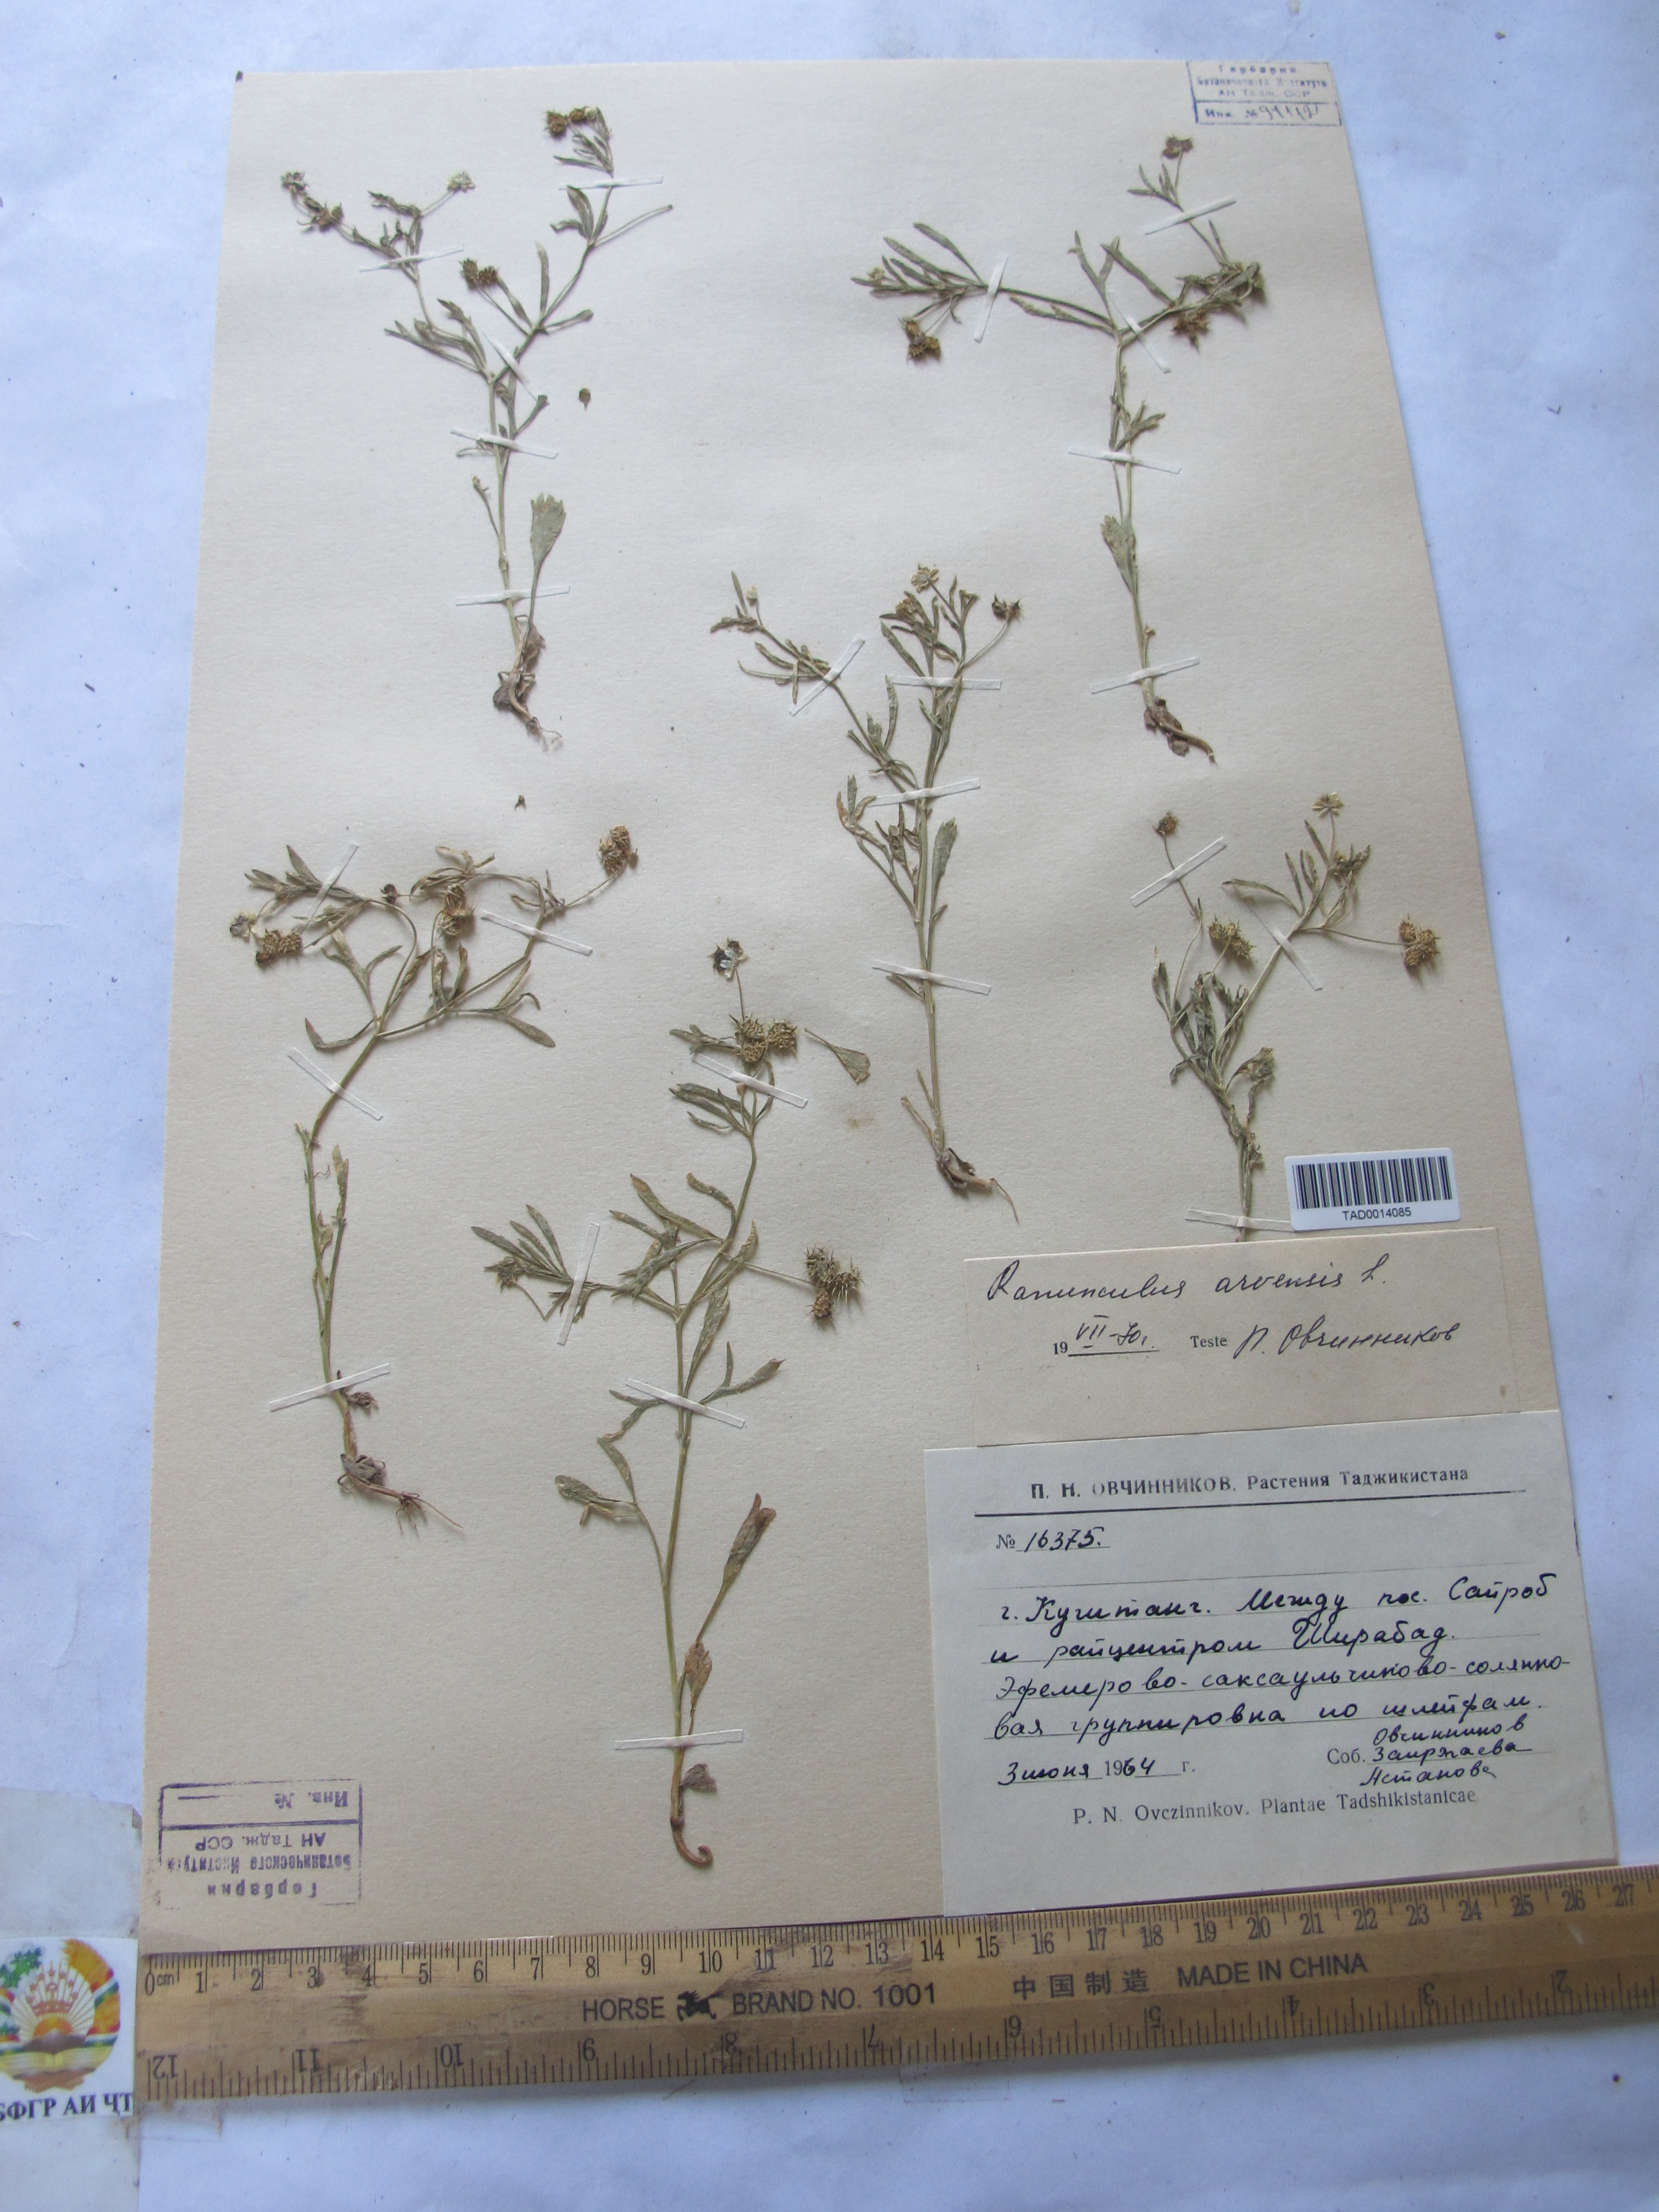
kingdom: Plantae
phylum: Tracheophyta
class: Magnoliopsida
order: Ranunculales
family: Ranunculaceae
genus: Ranunculus
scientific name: Ranunculus arvensis
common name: Corn buttercup
